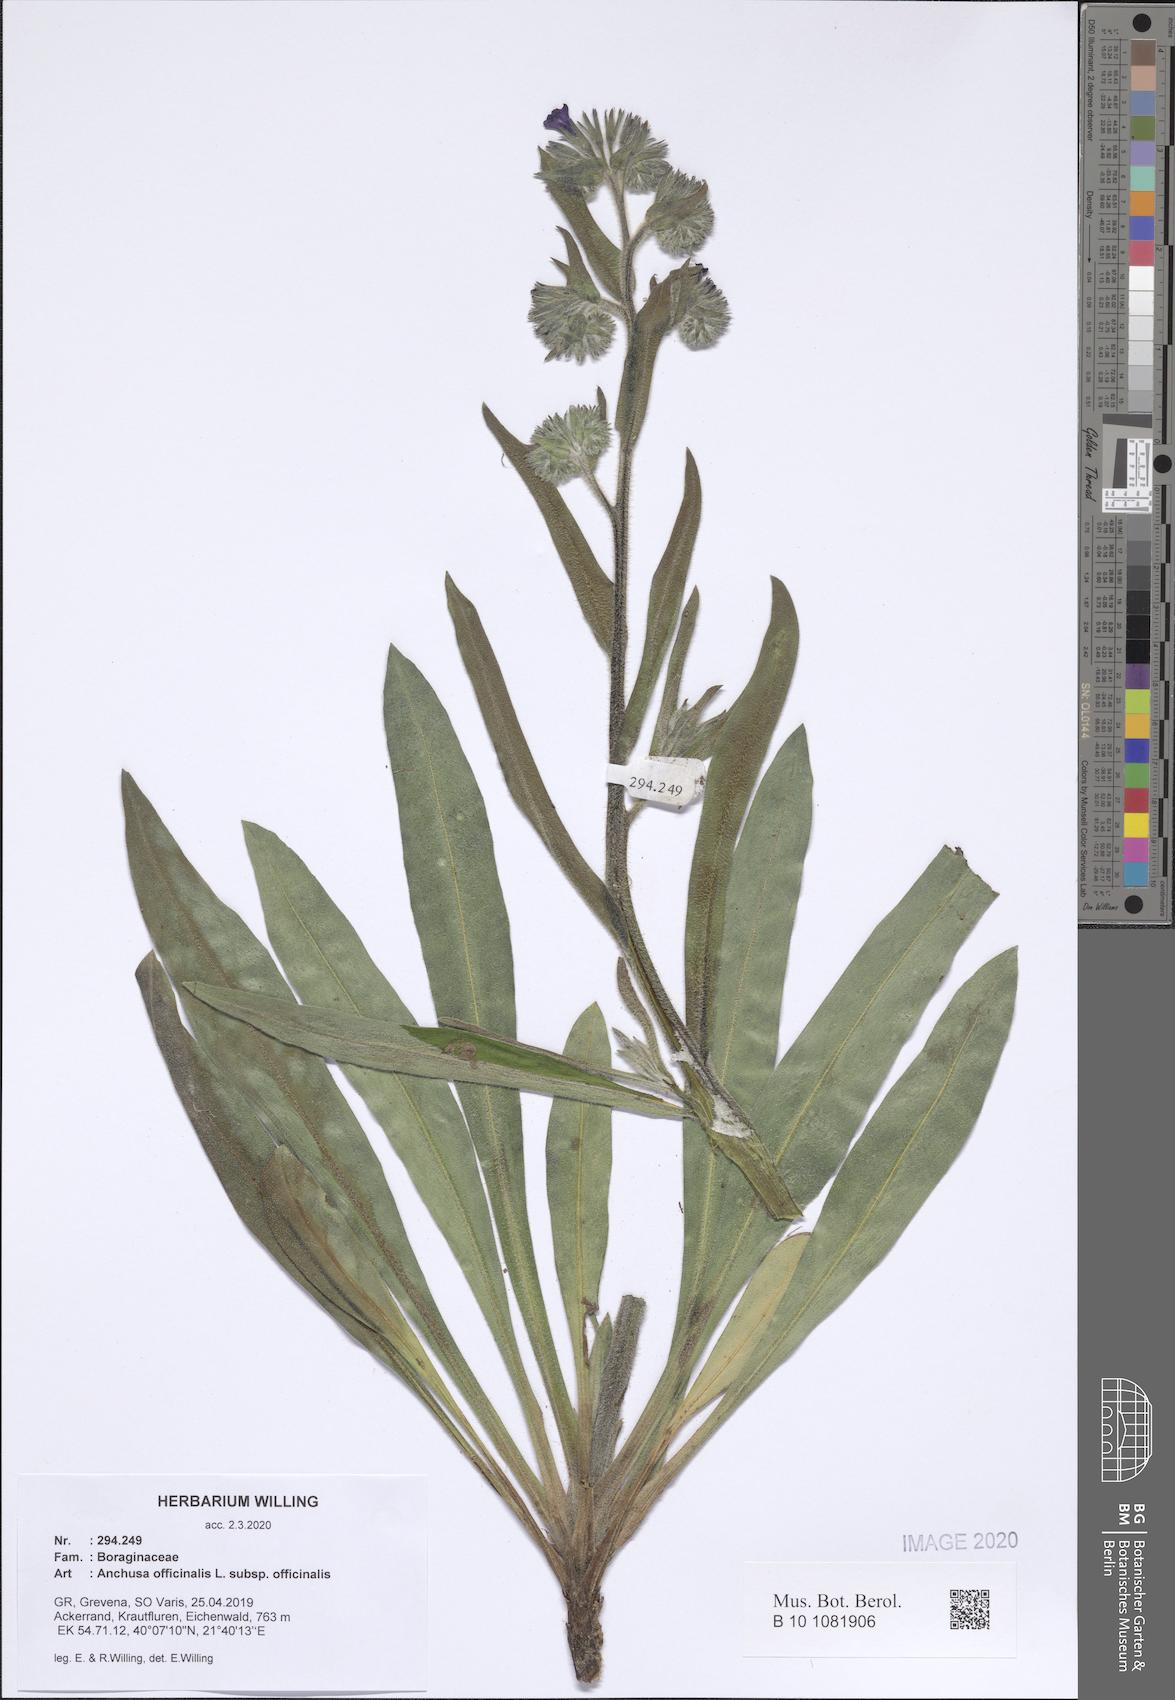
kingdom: Plantae
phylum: Tracheophyta
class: Magnoliopsida
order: Boraginales
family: Boraginaceae
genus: Anchusa
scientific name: Anchusa officinalis
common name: Alkanet
